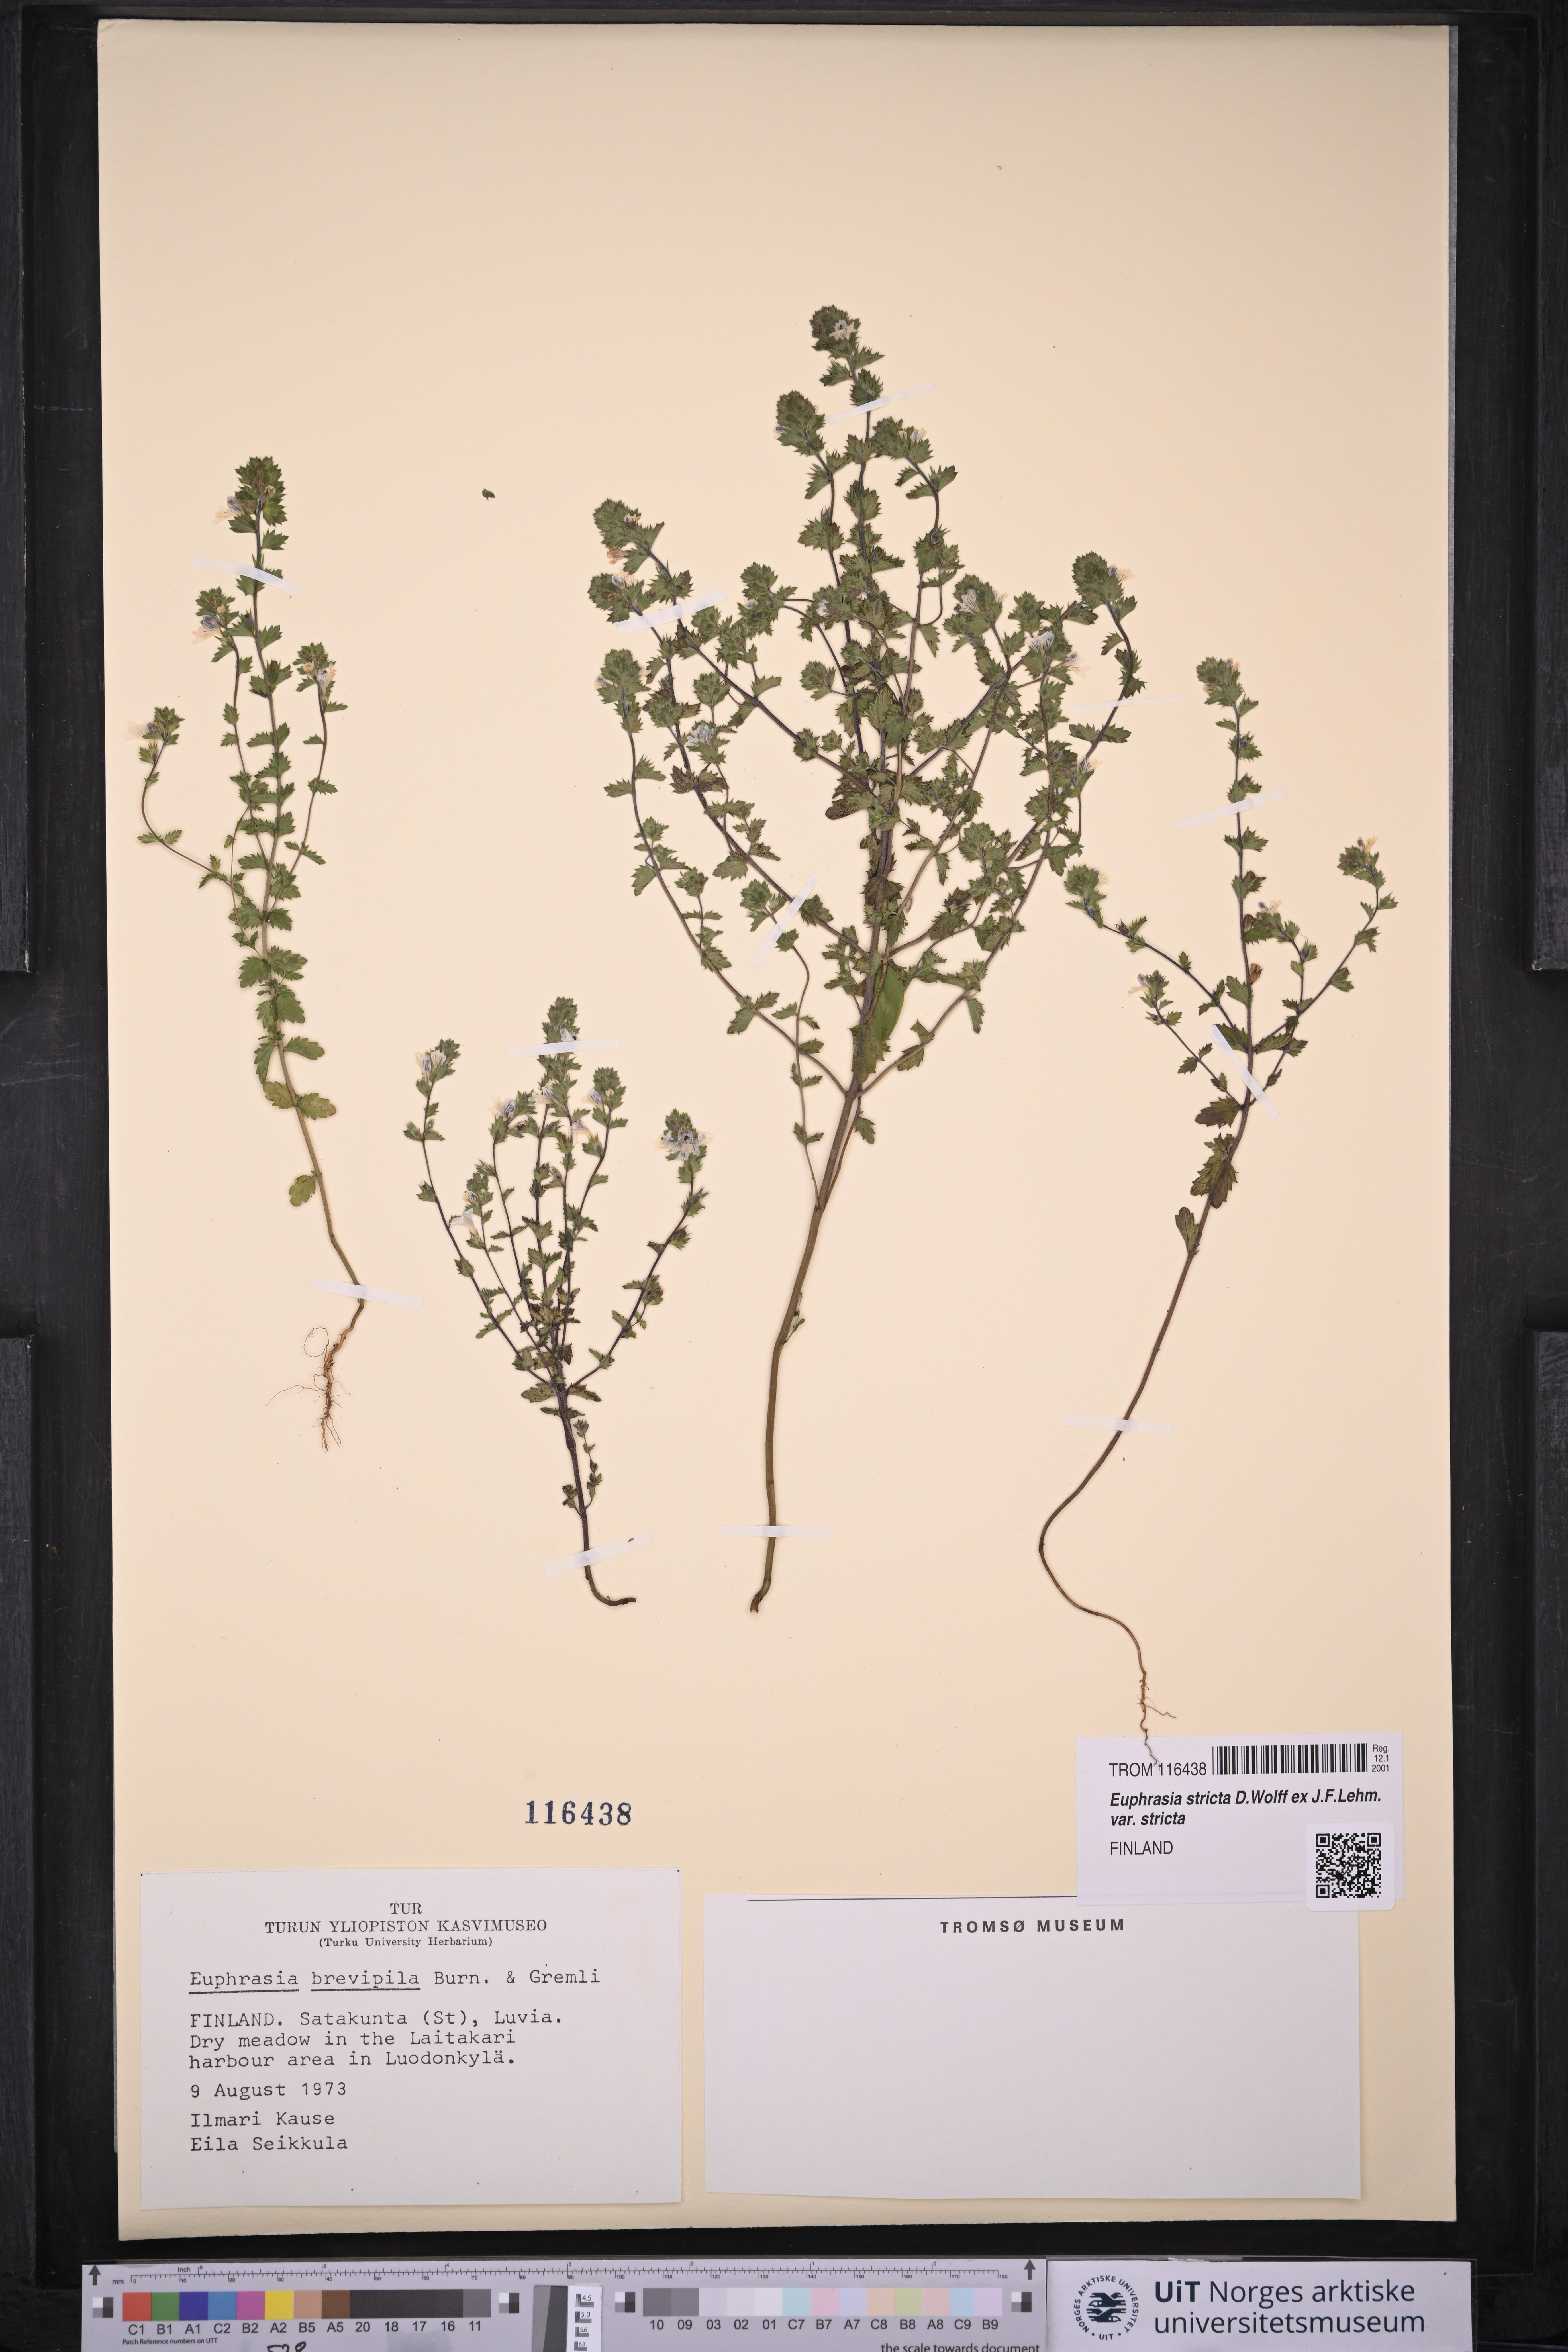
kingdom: Plantae
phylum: Tracheophyta
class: Magnoliopsida
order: Lamiales
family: Orobanchaceae
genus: Euphrasia
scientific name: Euphrasia vernalis
